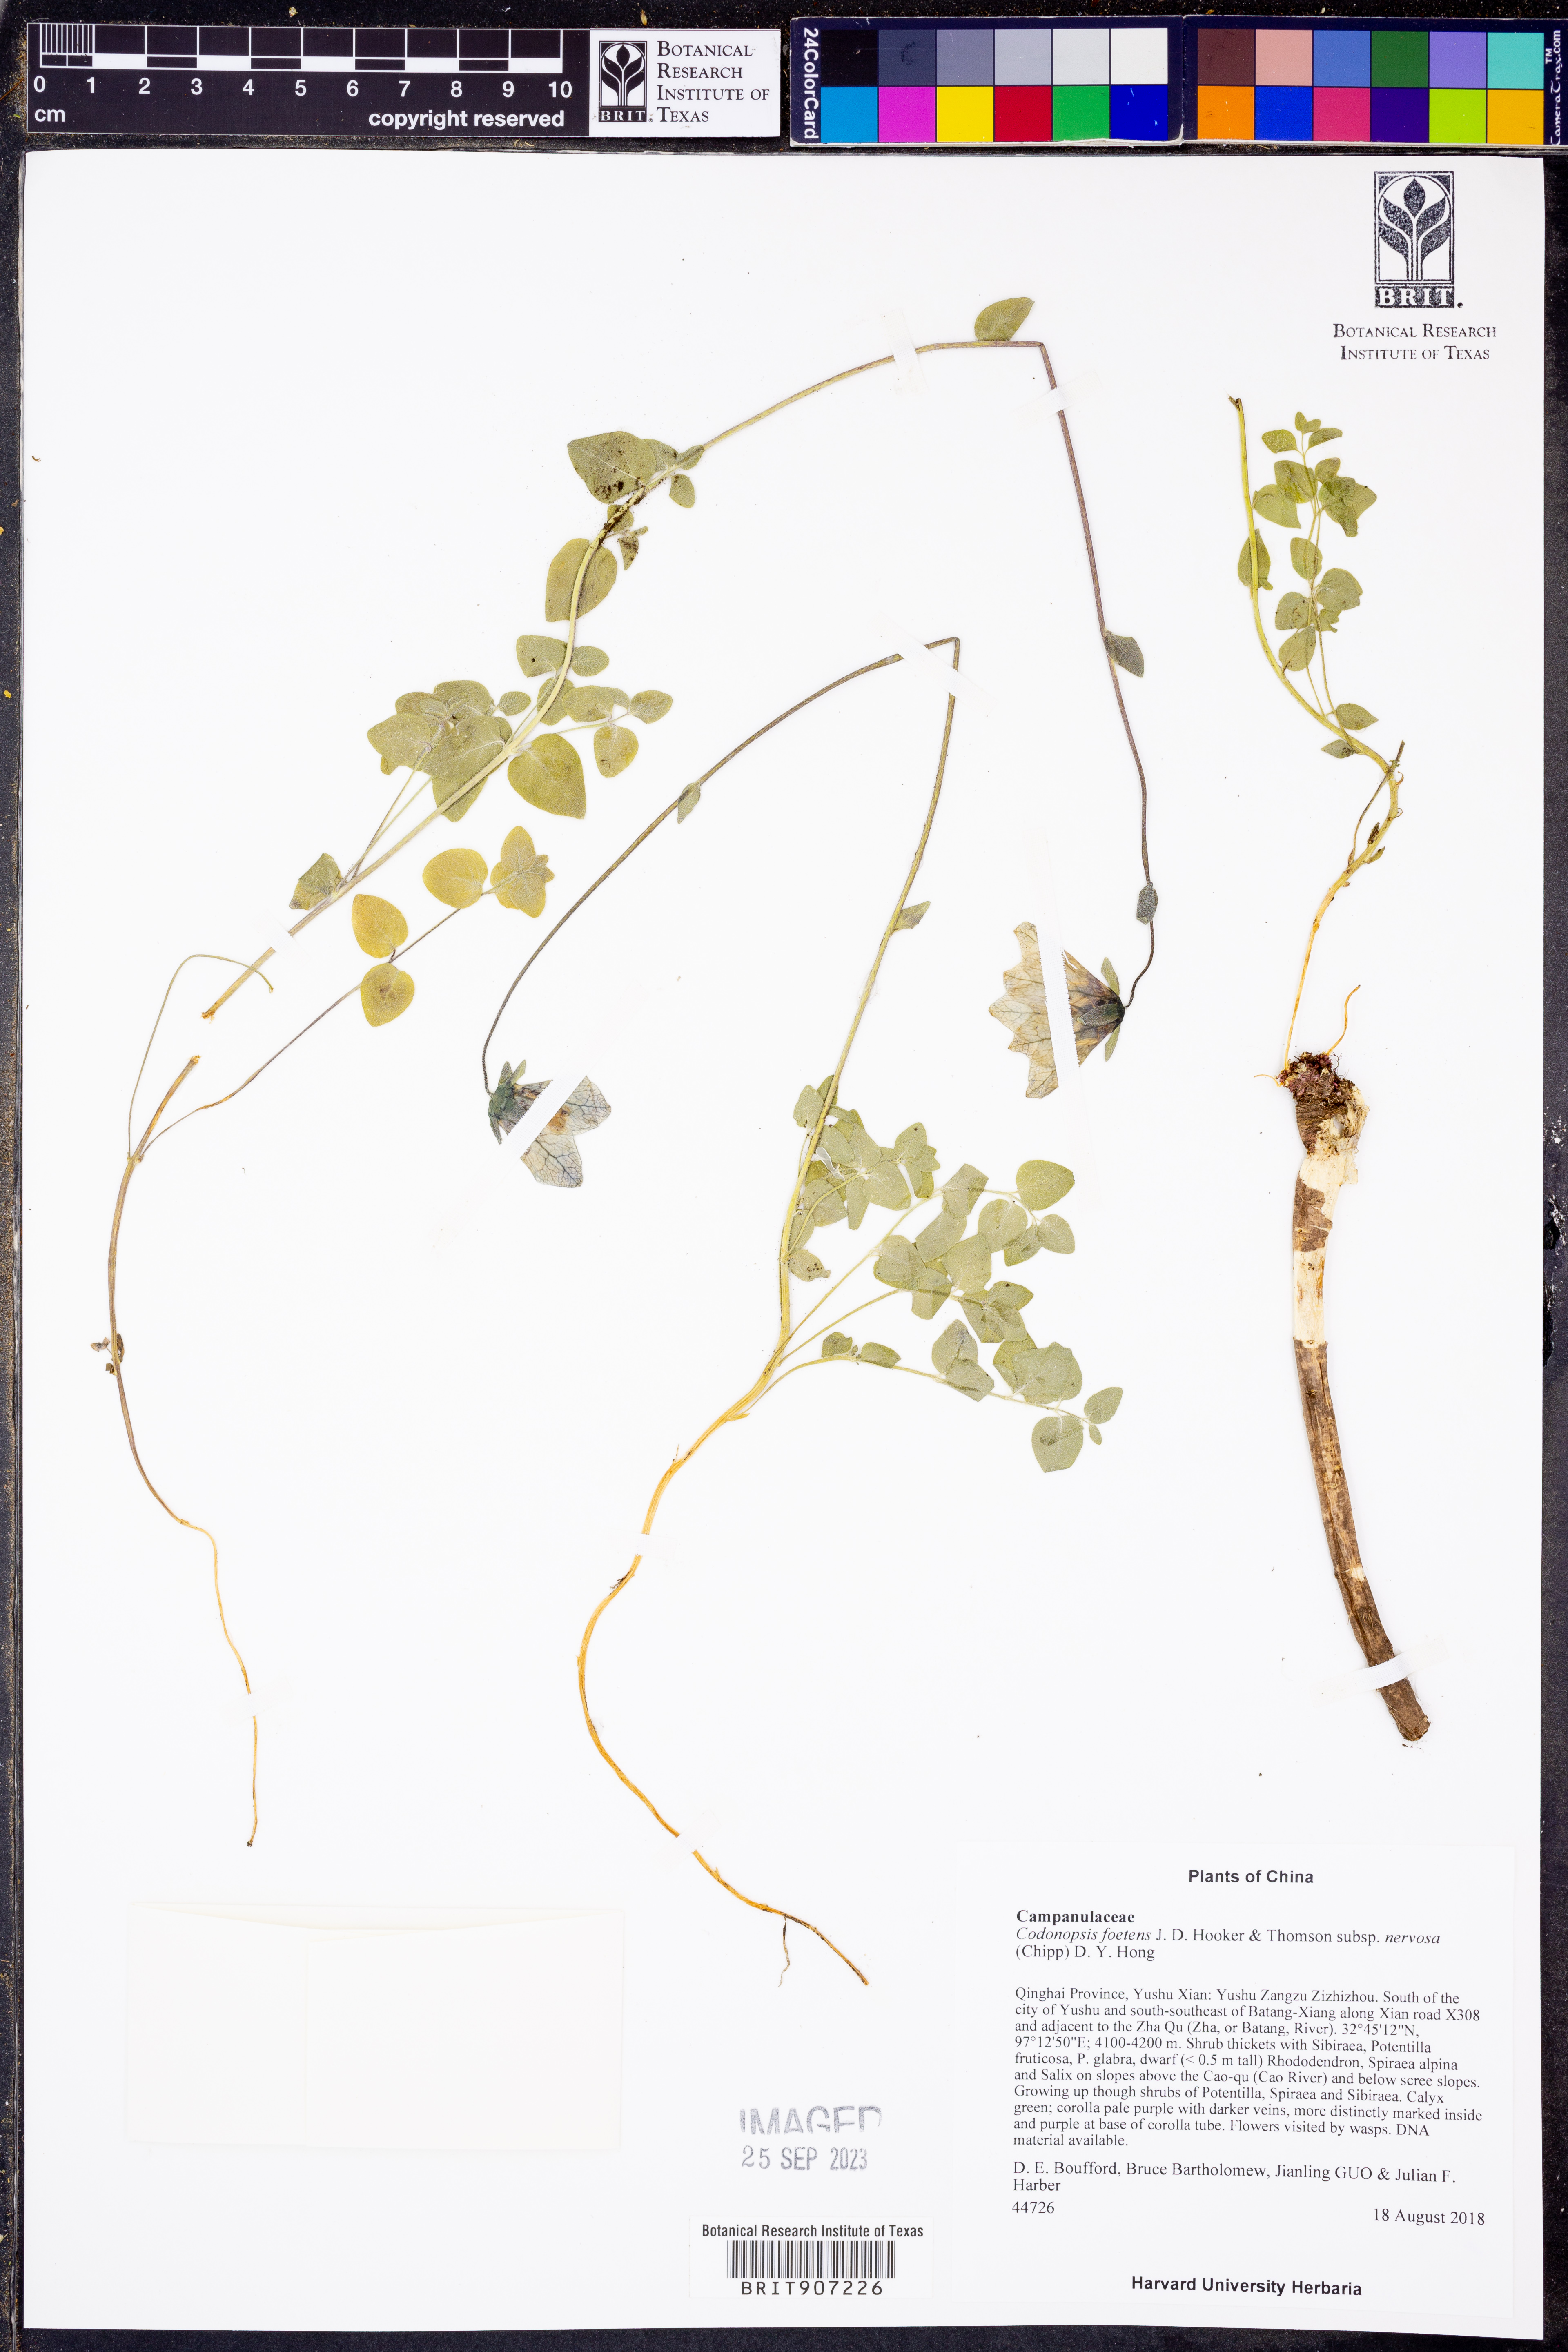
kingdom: Plantae
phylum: Tracheophyta
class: Magnoliopsida
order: Asterales
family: Campanulaceae
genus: Codonopsis
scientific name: Codonopsis foetens
